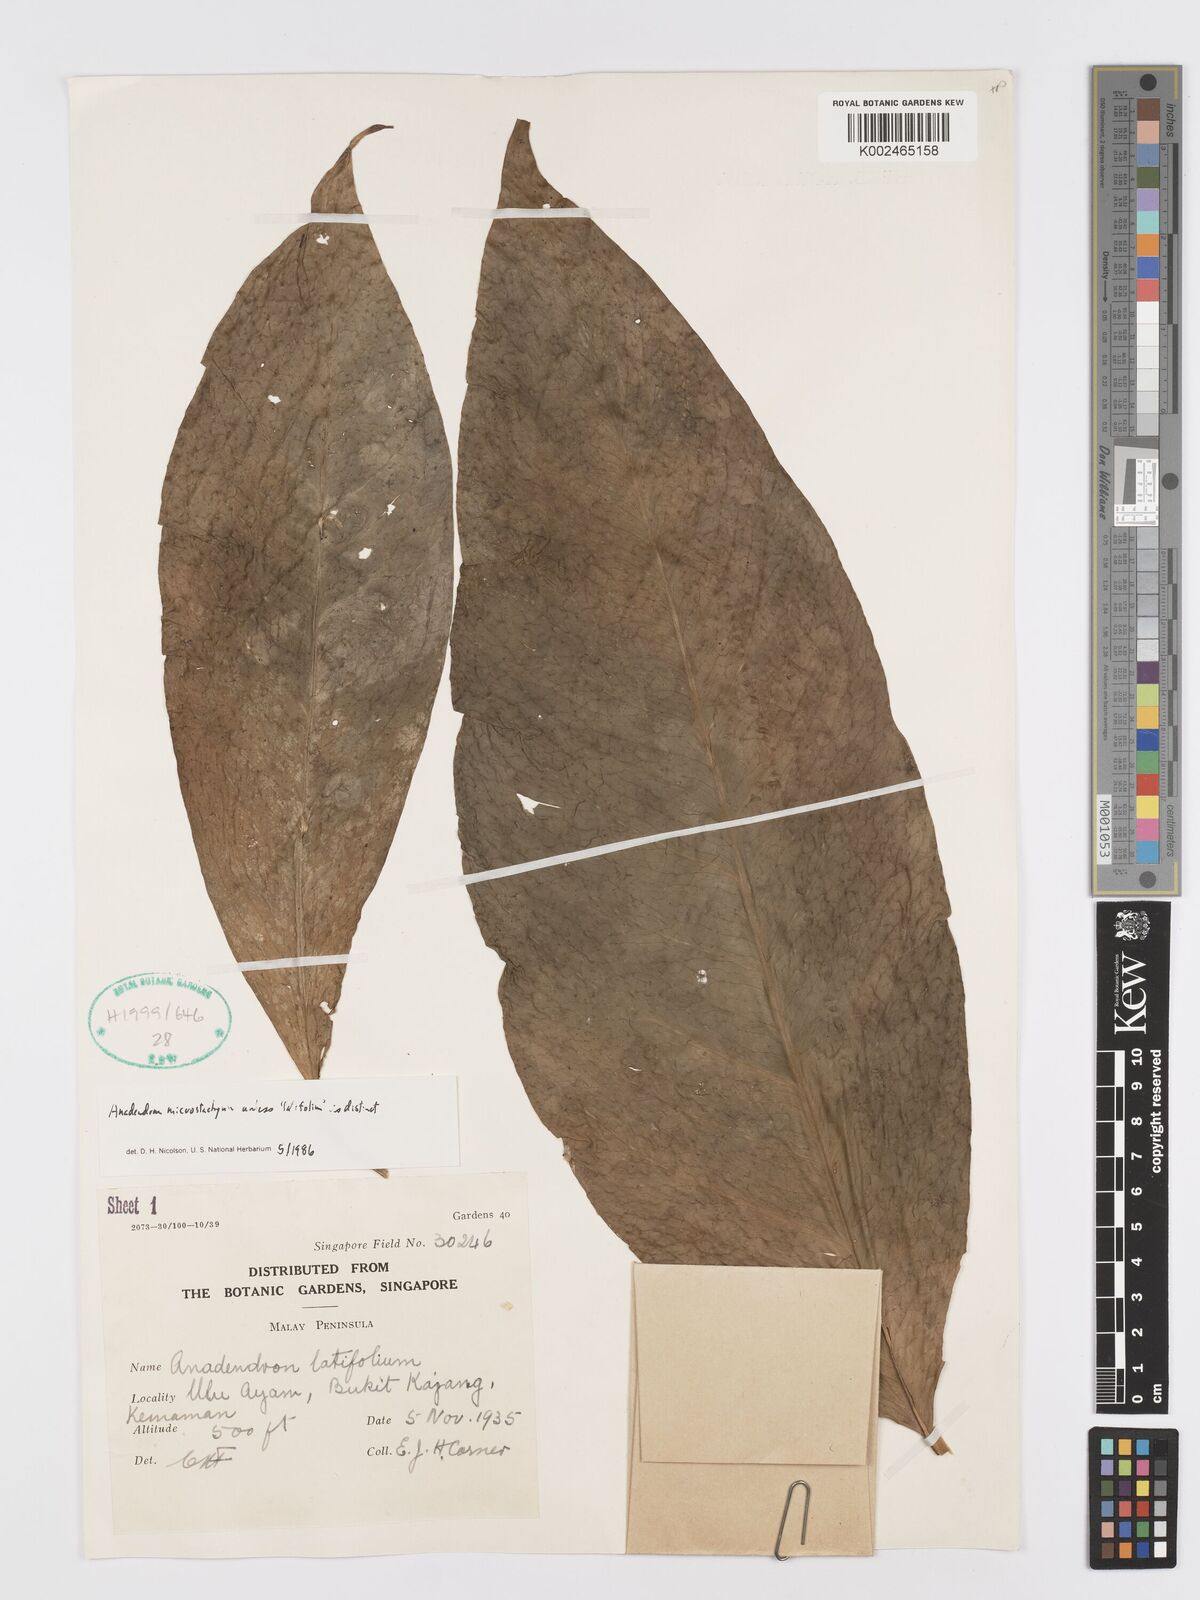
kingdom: Plantae
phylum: Tracheophyta
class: Liliopsida
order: Alismatales
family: Araceae
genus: Anadendrum
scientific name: Anadendrum microstachyum
